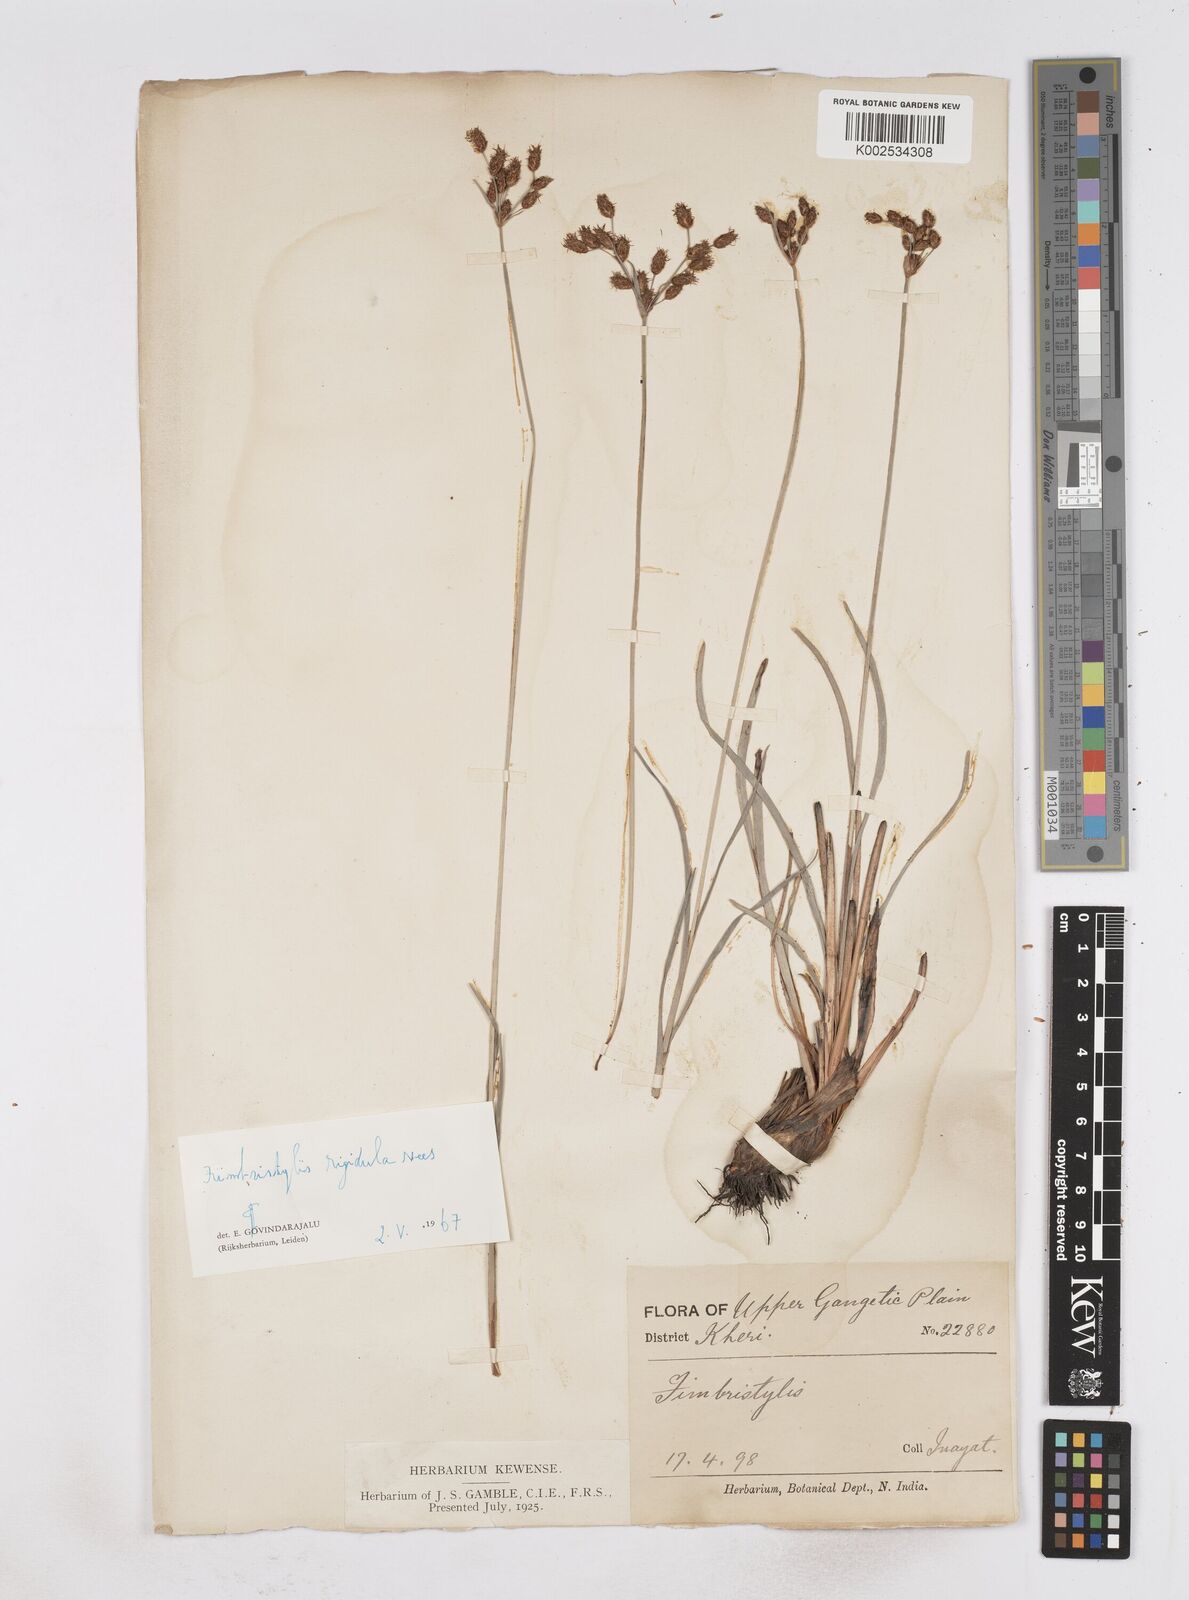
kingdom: Plantae
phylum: Tracheophyta
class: Liliopsida
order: Poales
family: Cyperaceae
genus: Fimbristylis
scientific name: Fimbristylis rigidula
